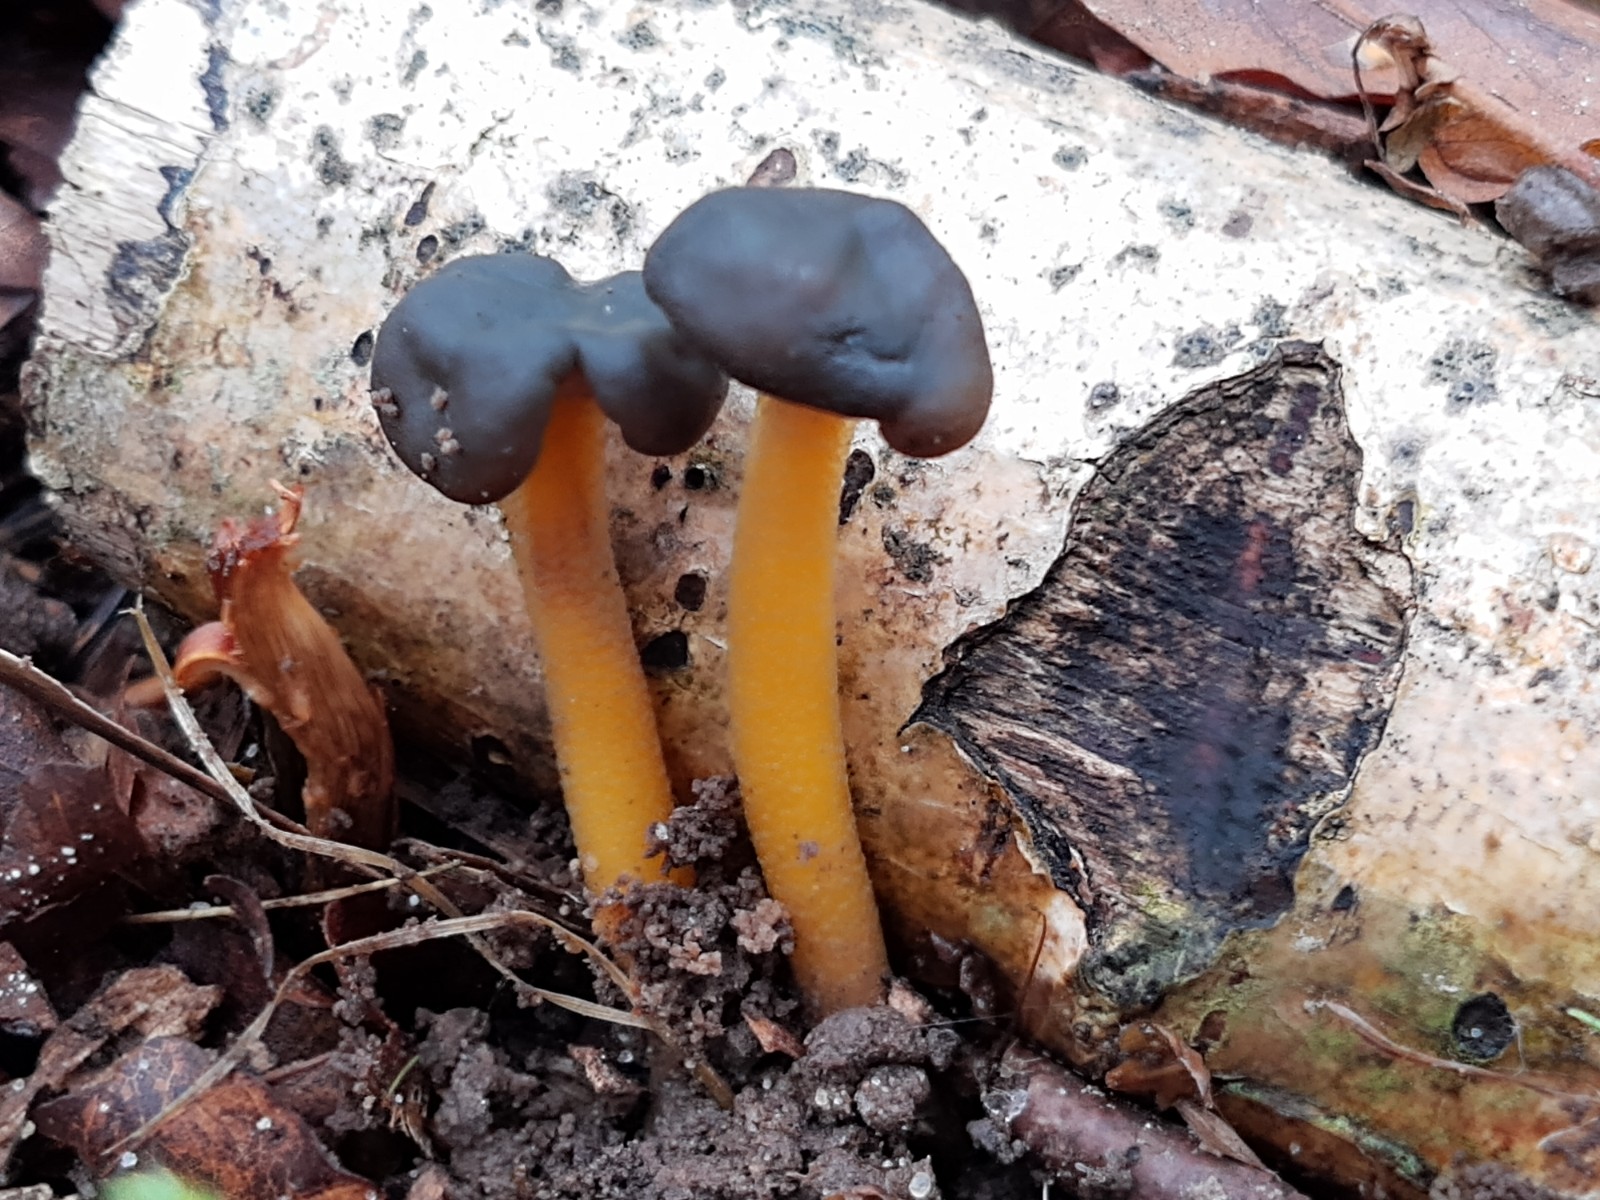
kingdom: Fungi
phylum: Ascomycota
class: Leotiomycetes
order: Leotiales
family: Leotiaceae
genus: Leotia
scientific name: Leotia lubrica
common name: ravsvamp
